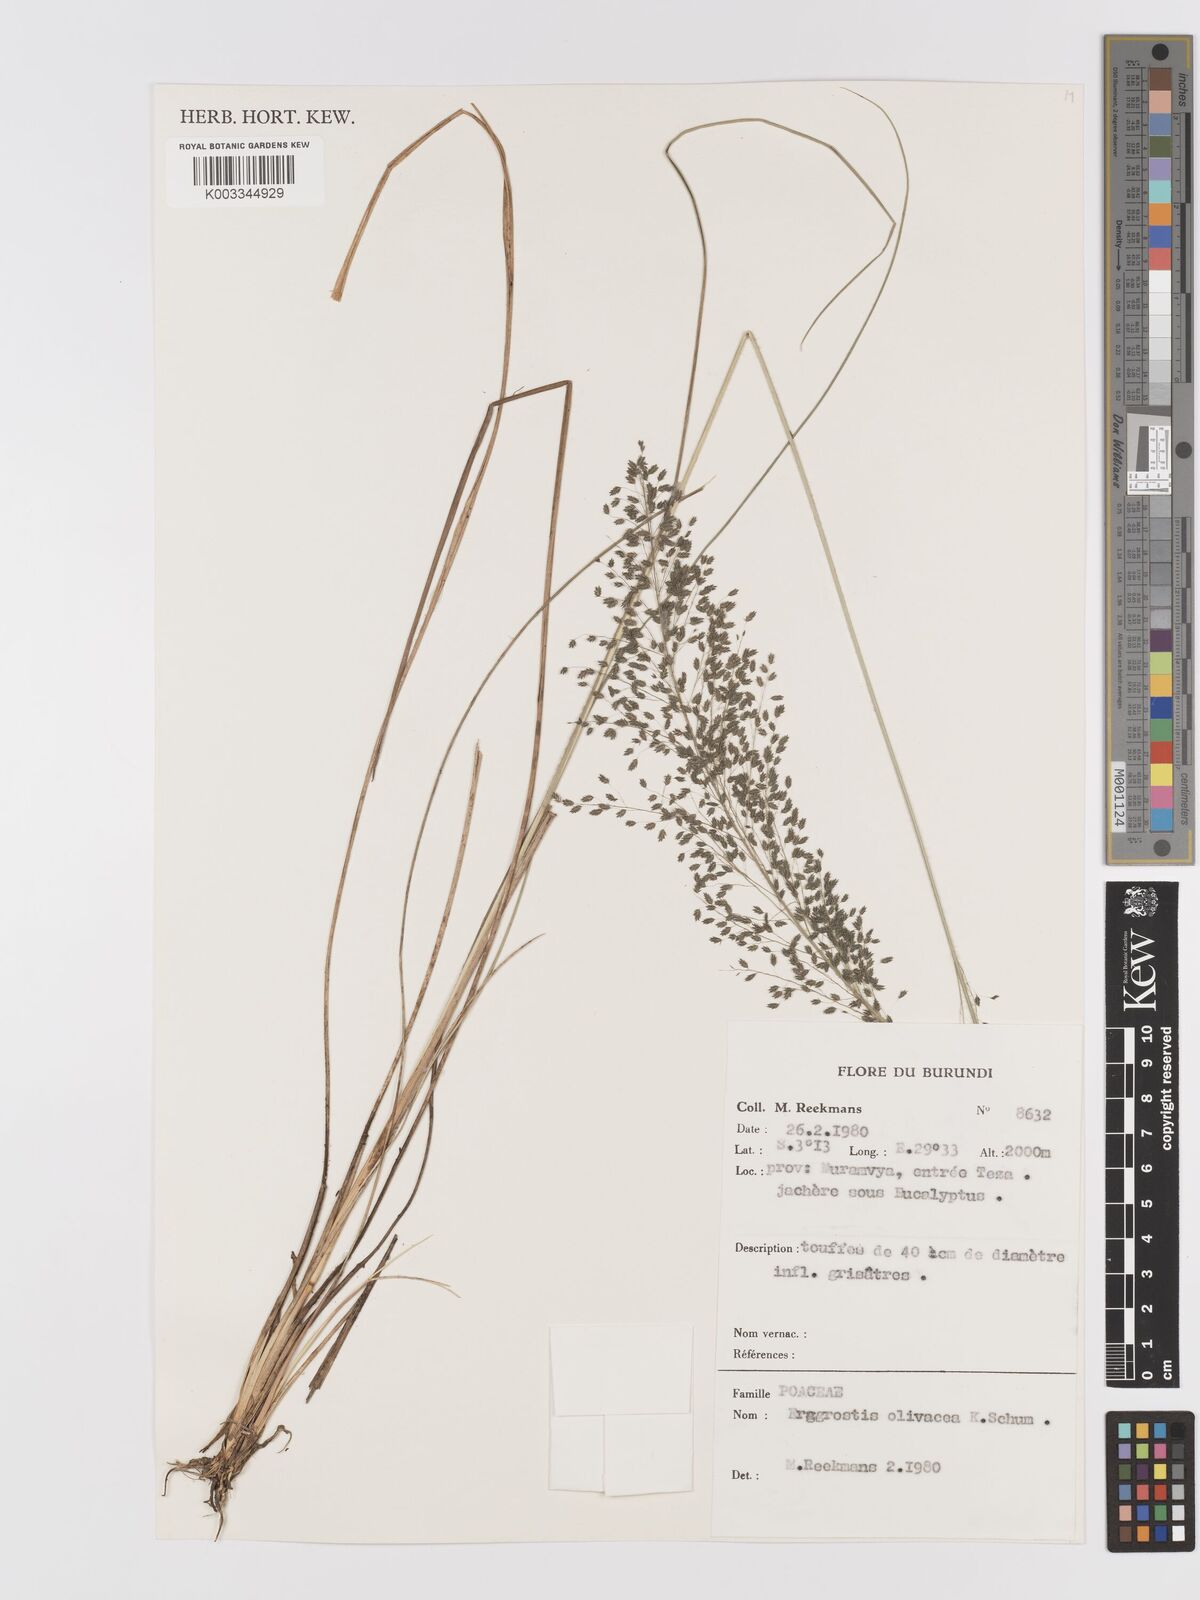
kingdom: Plantae
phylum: Tracheophyta
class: Liliopsida
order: Poales
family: Poaceae
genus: Eragrostis
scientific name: Eragrostis olivacea
